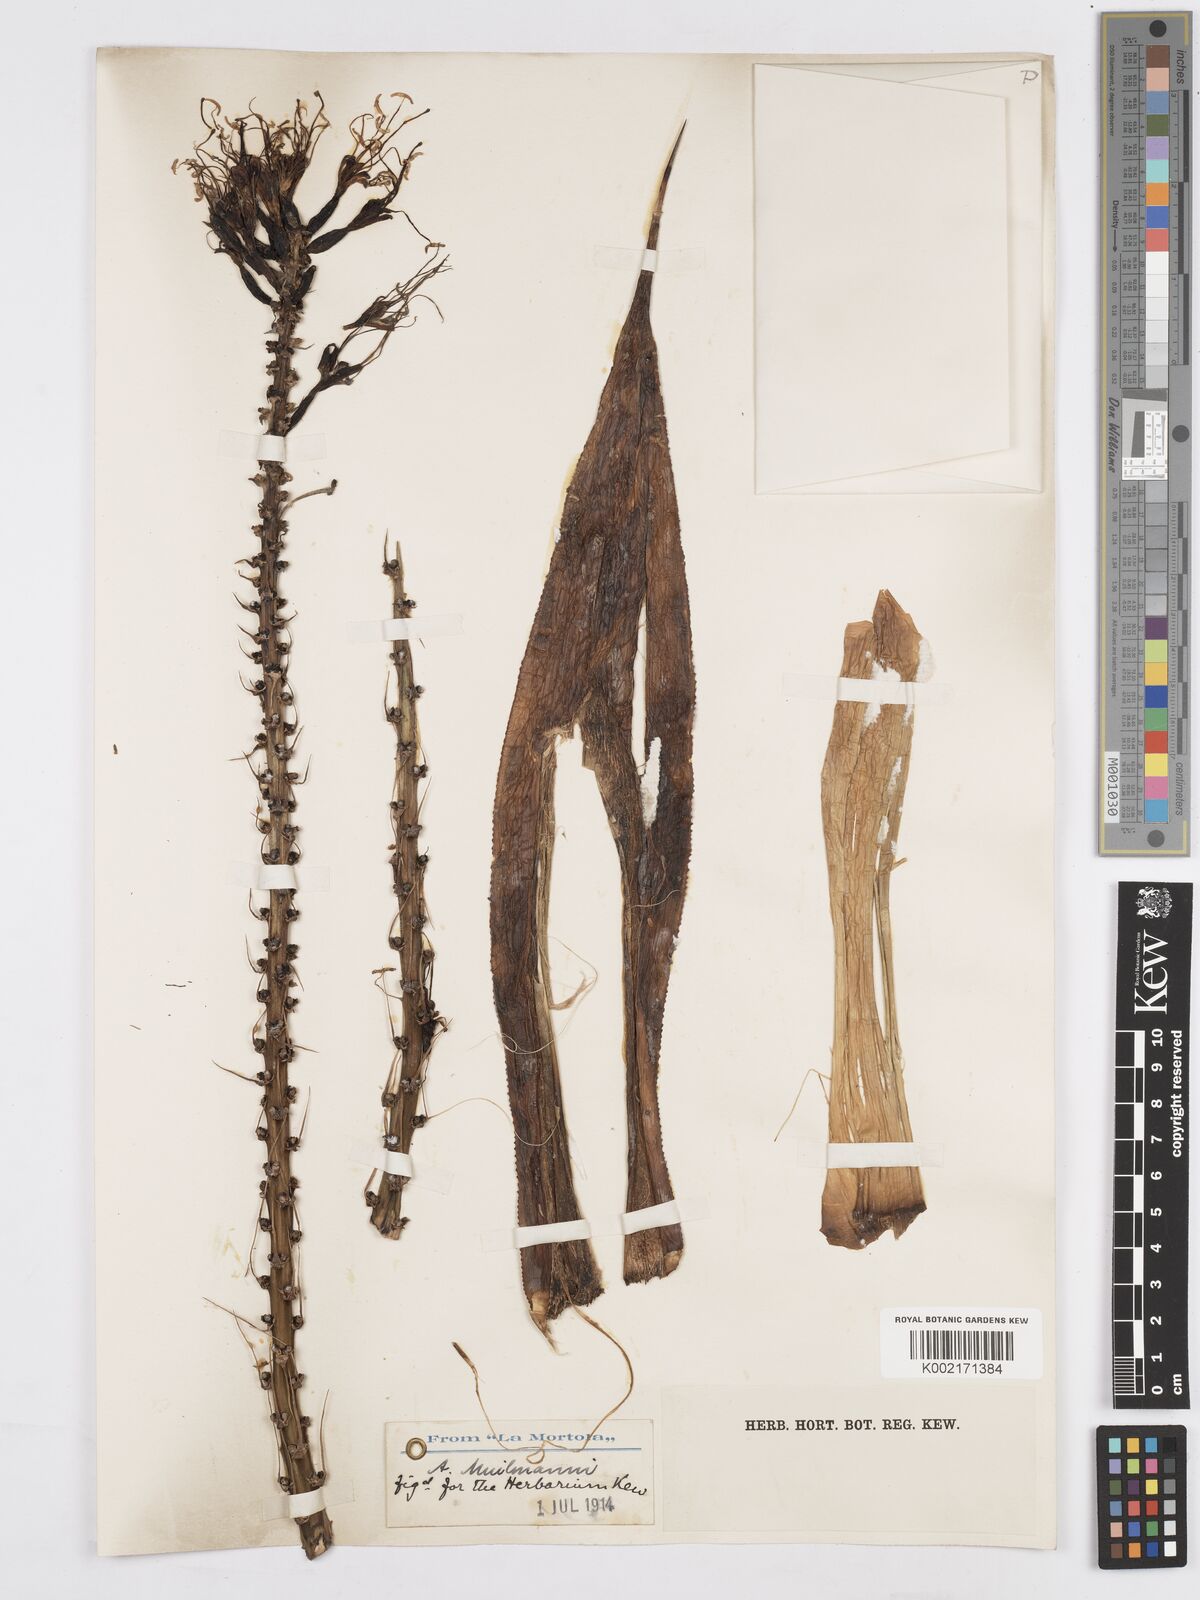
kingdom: Plantae
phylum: Tracheophyta
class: Liliopsida
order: Asparagales
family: Asparagaceae
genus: Agave
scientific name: Agave polyacantha
